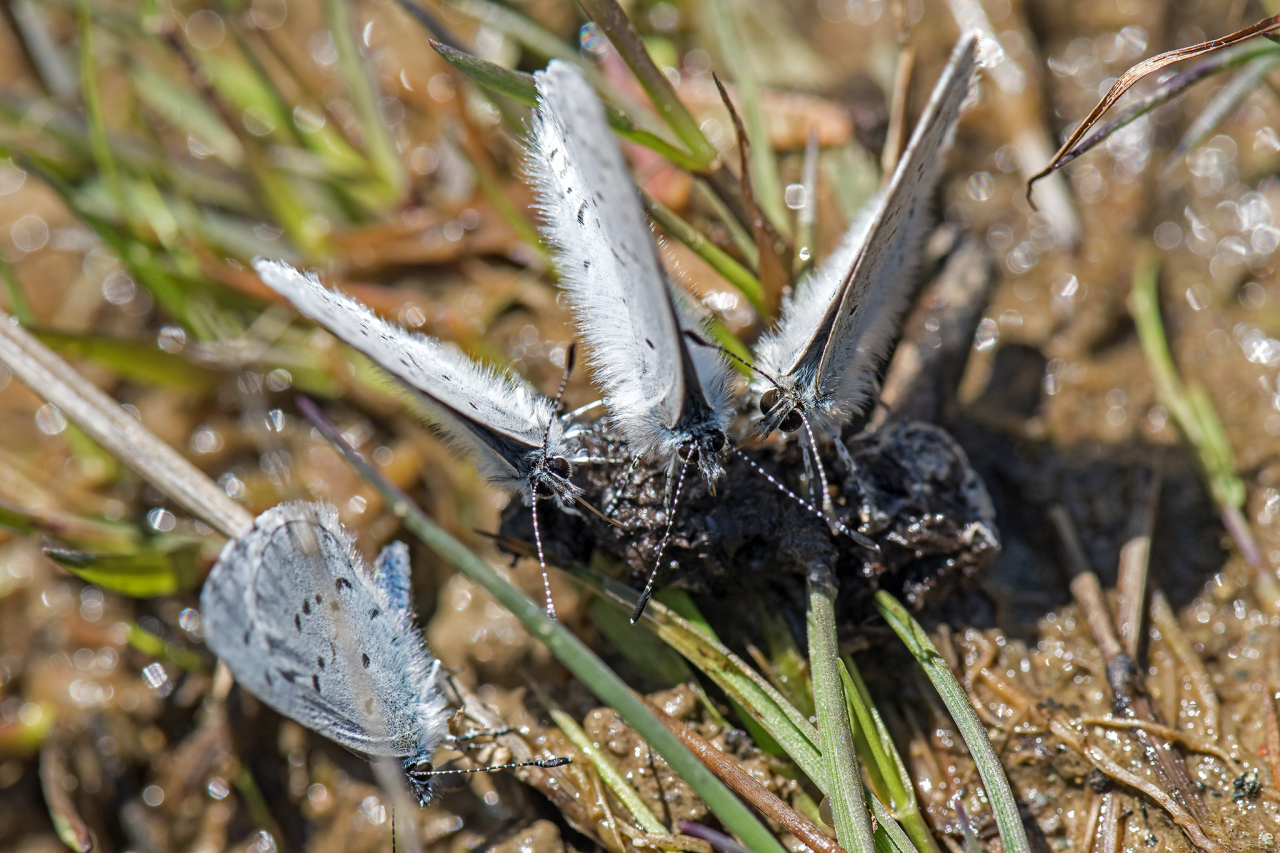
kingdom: Animalia
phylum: Arthropoda
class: Insecta
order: Lepidoptera
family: Lycaenidae
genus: Celastrina
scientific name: Celastrina ladon
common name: Echo Azure
